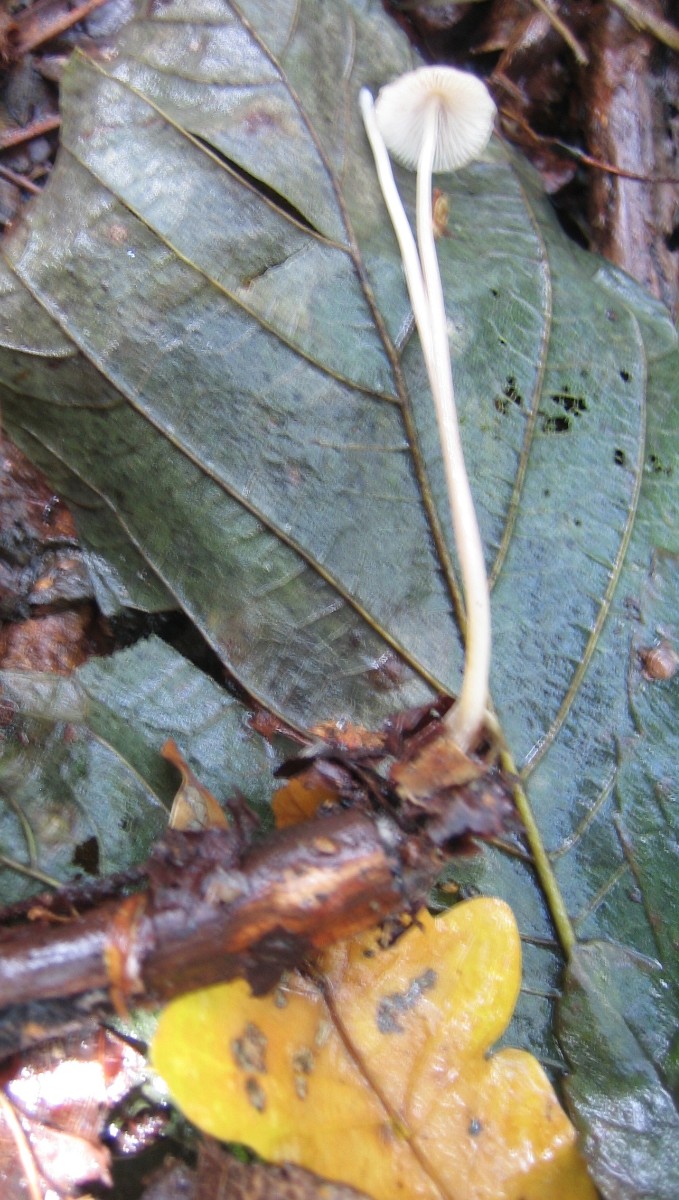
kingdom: Fungi
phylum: Basidiomycota
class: Agaricomycetes
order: Agaricales
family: Mycenaceae
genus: Mycena
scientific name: Mycena
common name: huesvamp
